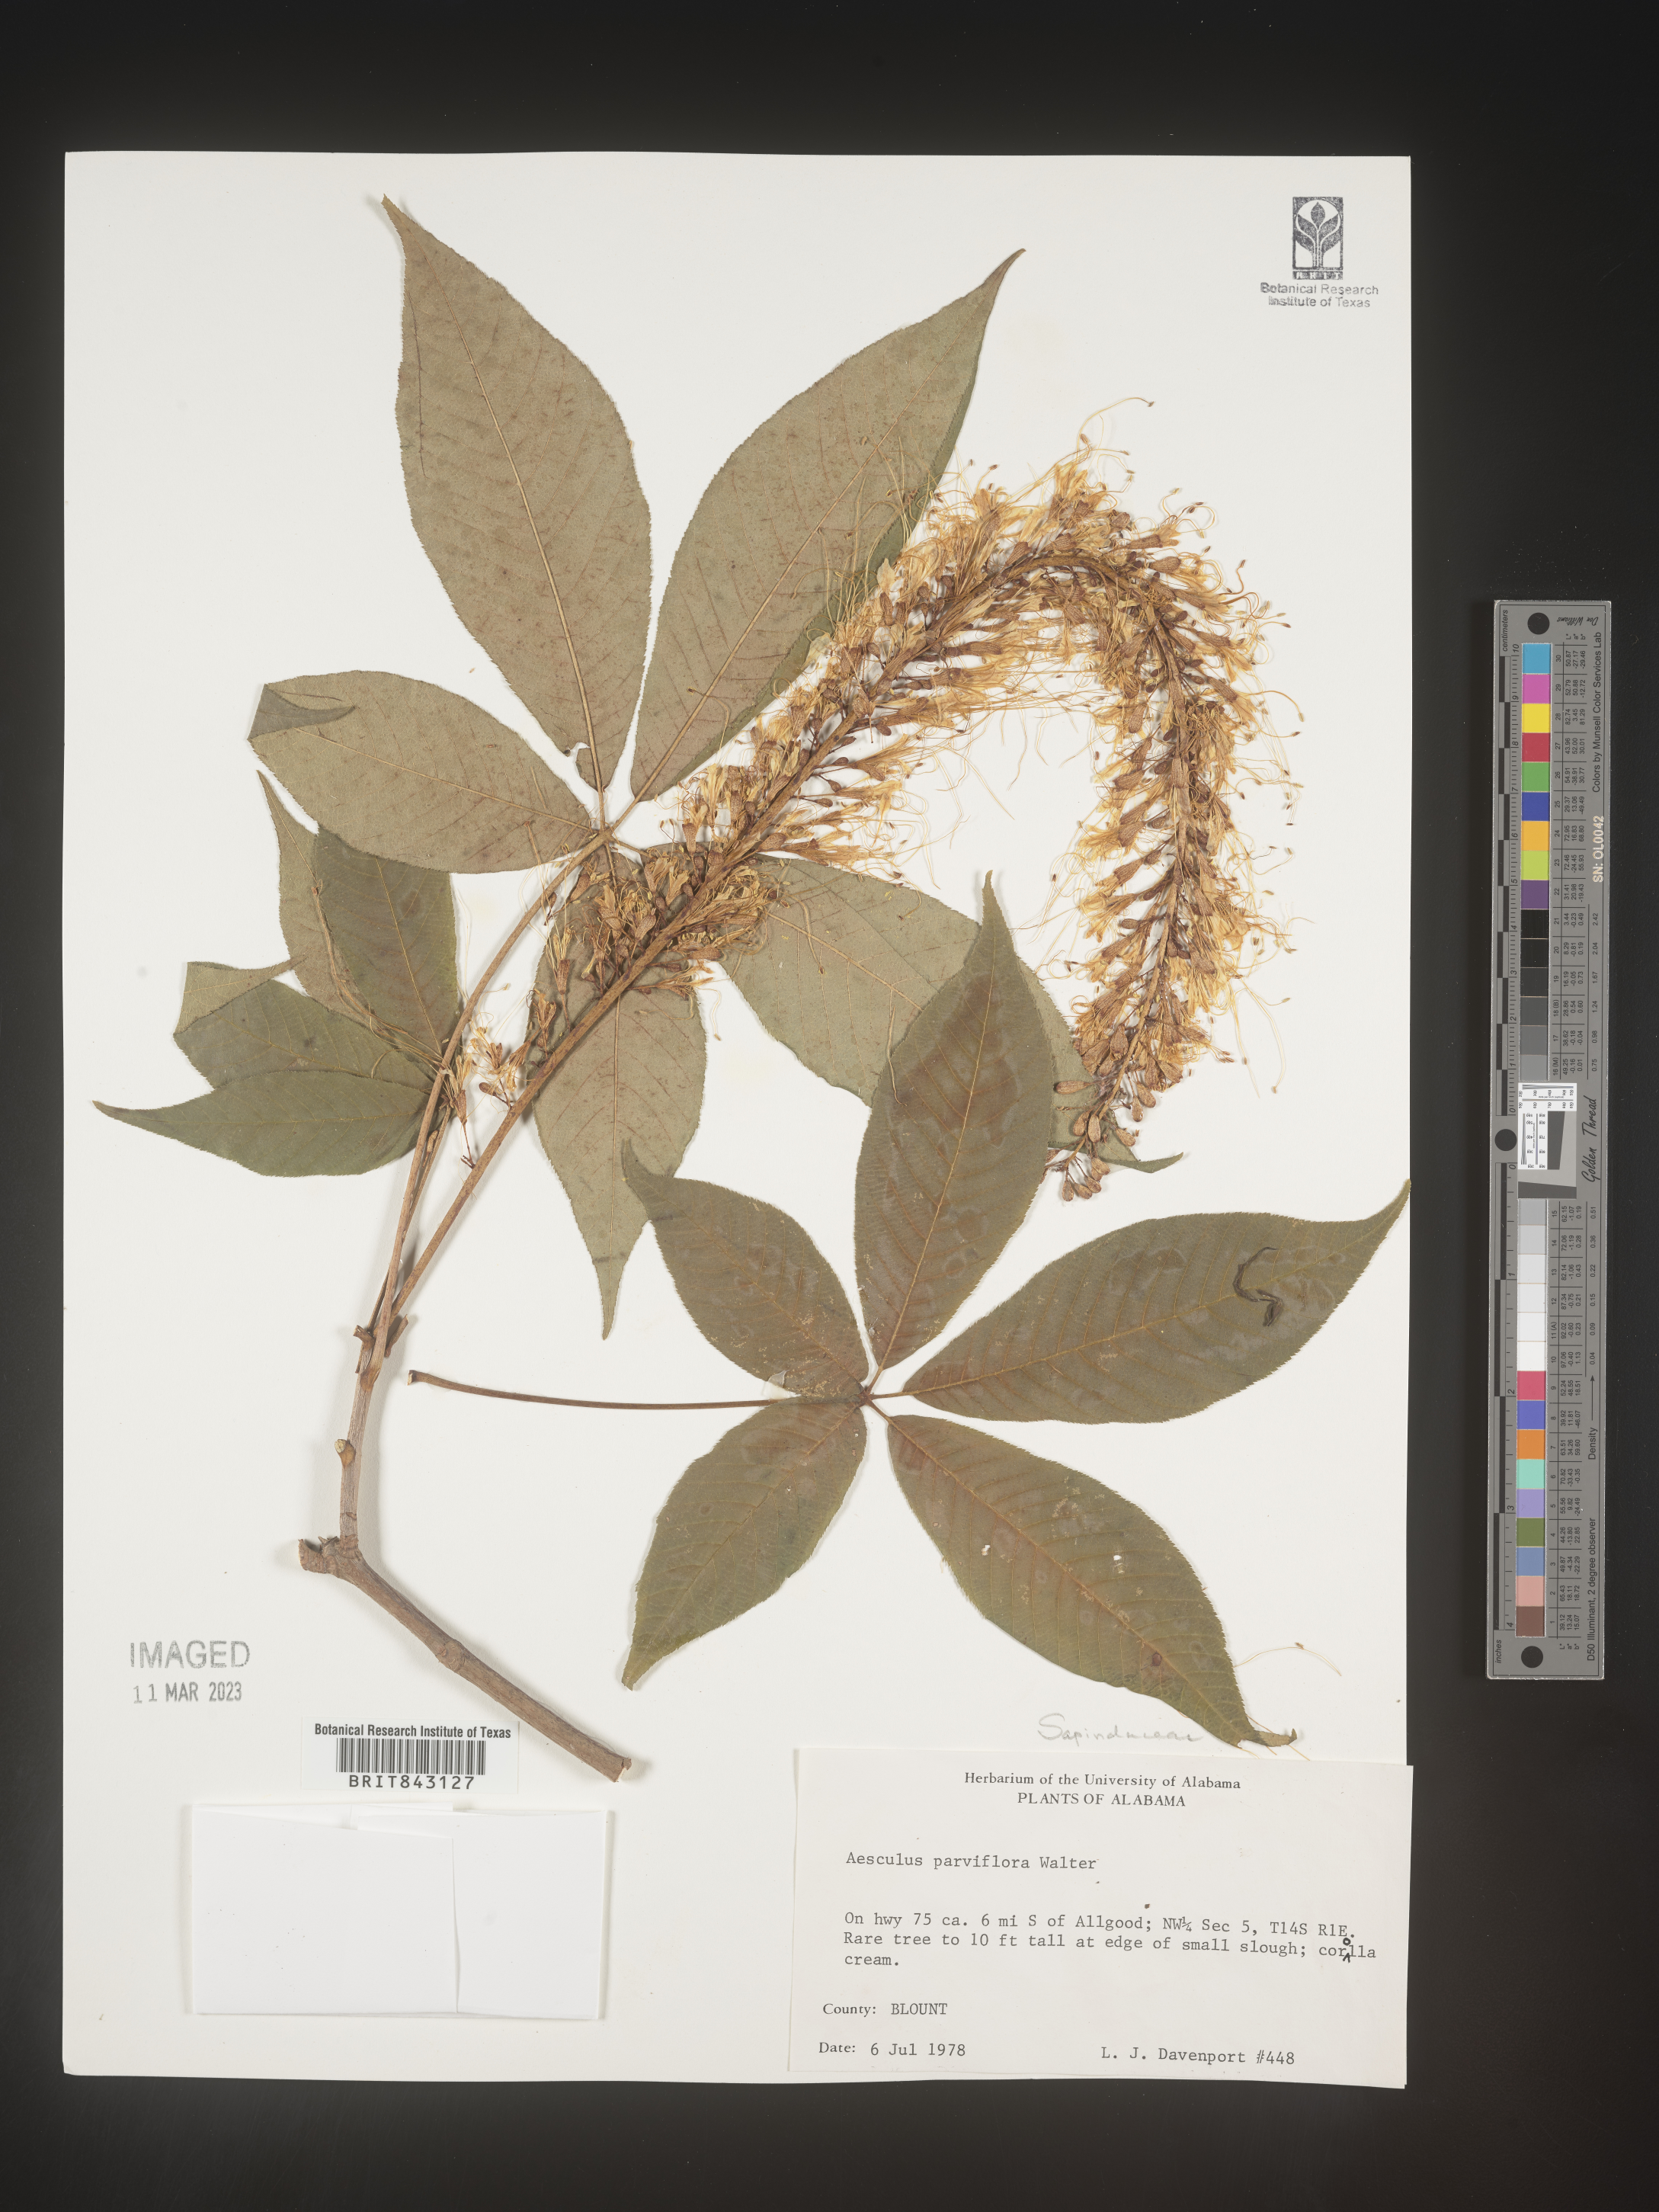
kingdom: Plantae
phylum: Tracheophyta
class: Magnoliopsida
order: Sapindales
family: Sapindaceae
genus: Aesculus
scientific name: Aesculus
